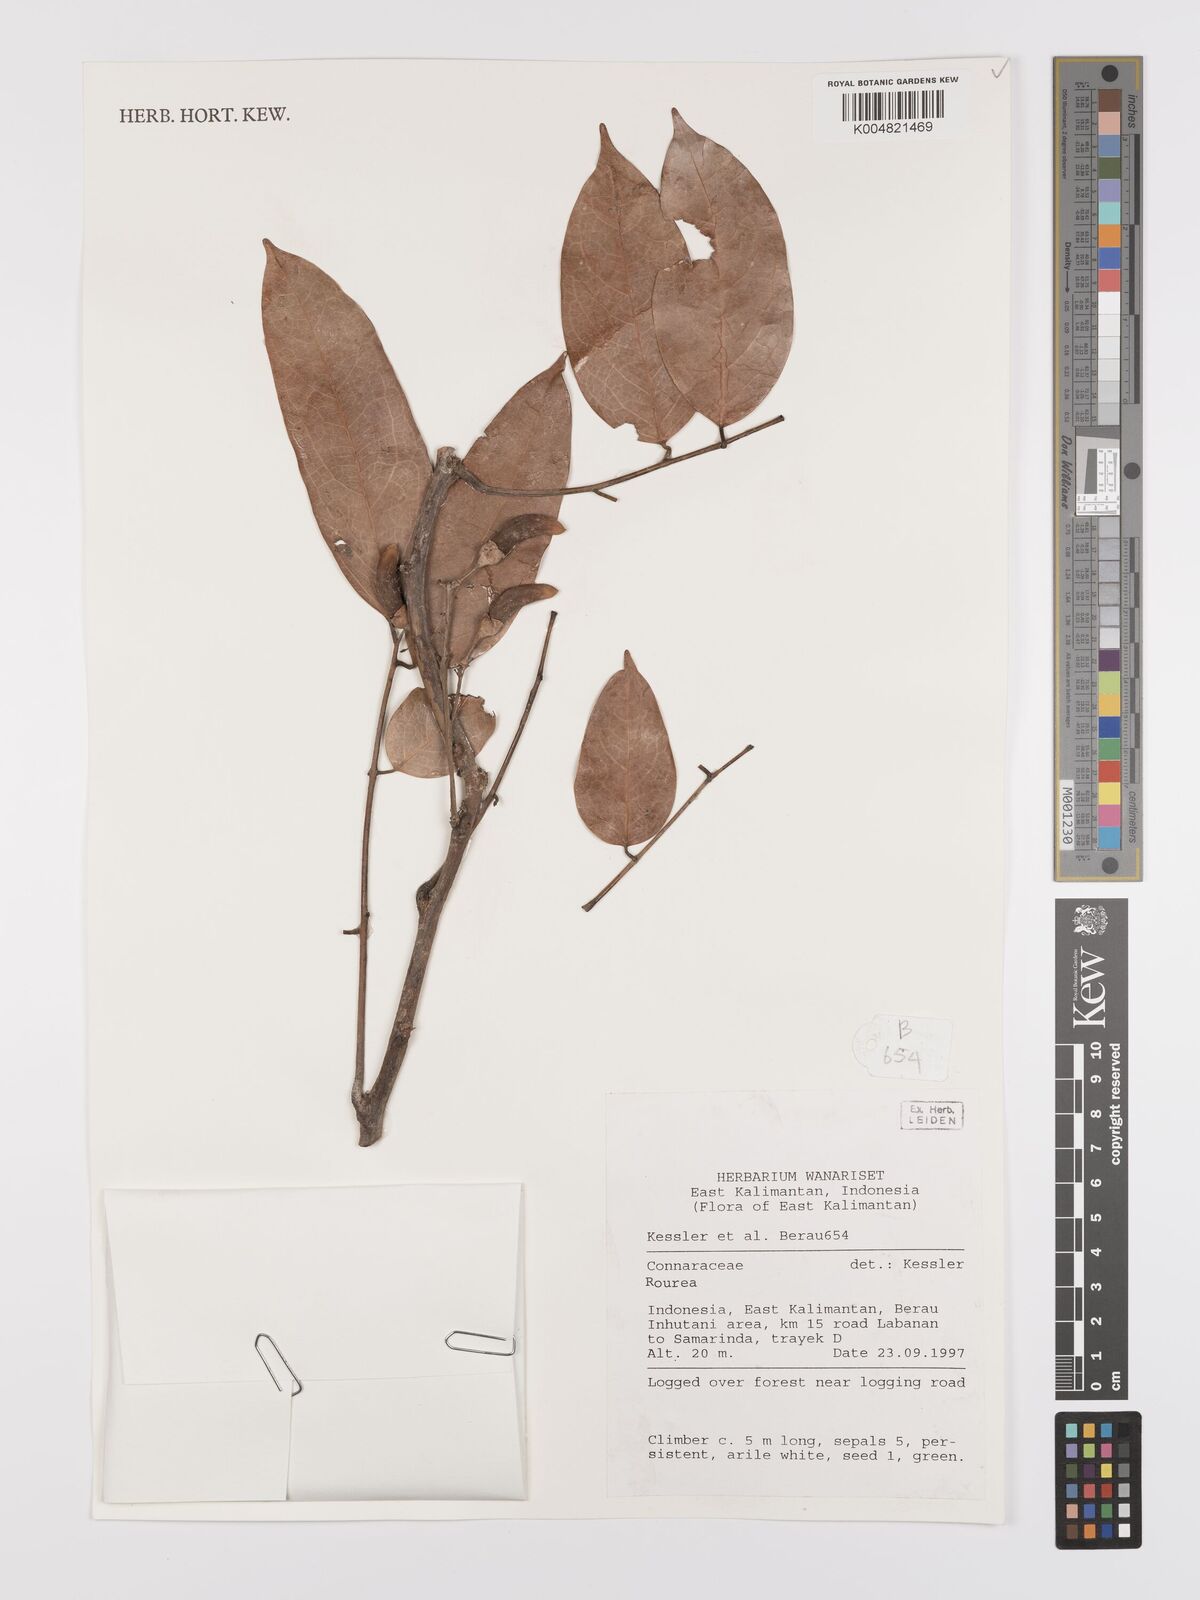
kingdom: Plantae
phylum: Tracheophyta
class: Magnoliopsida
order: Oxalidales
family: Connaraceae
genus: Rourea
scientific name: Rourea
